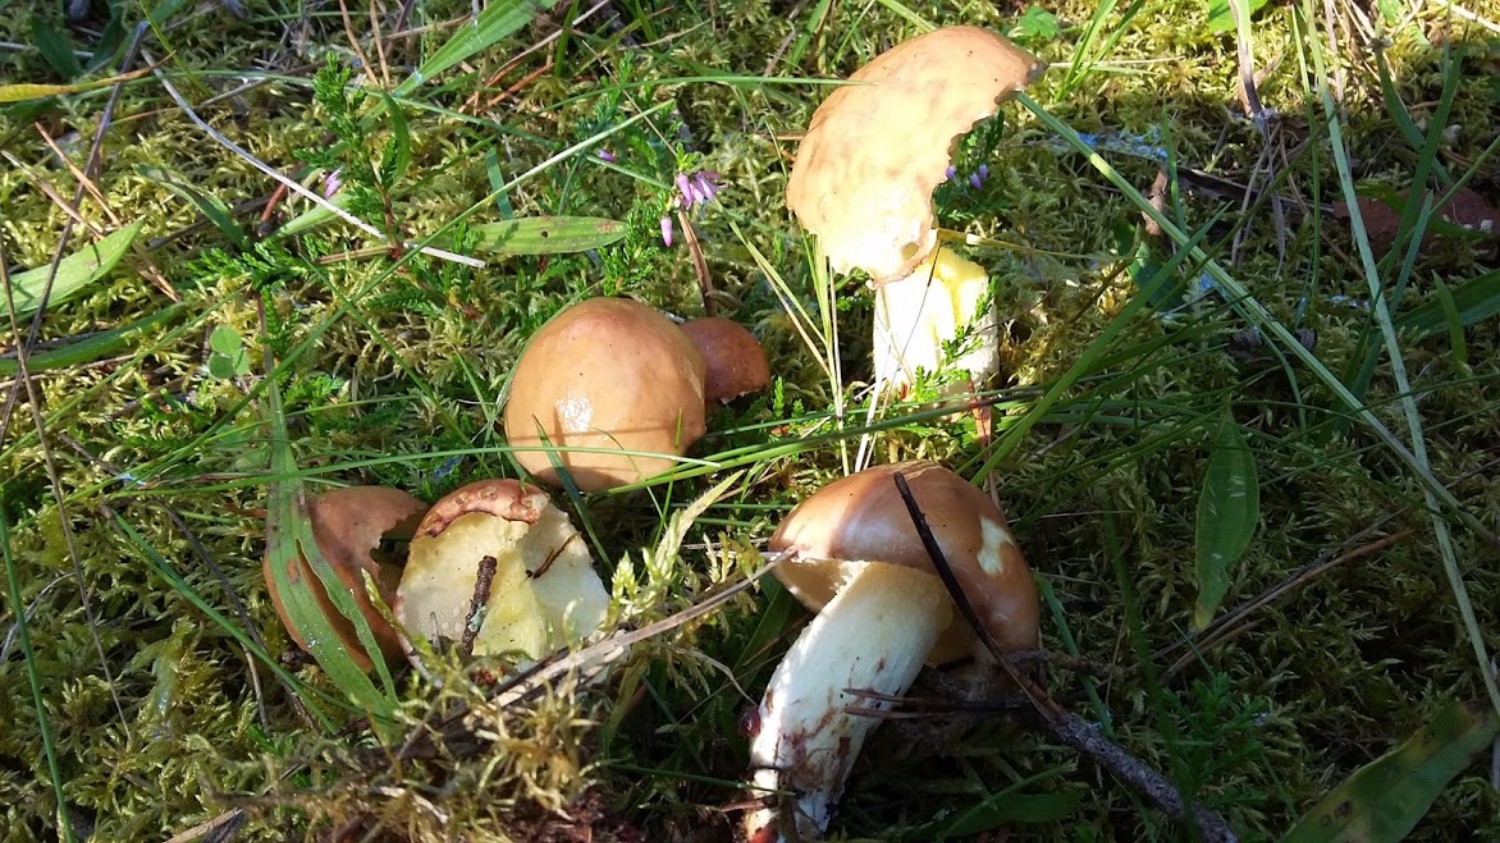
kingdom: Fungi
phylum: Basidiomycota
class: Agaricomycetes
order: Boletales
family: Suillaceae
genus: Suillus
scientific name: Suillus granulatus
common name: kornet slimrørhat
